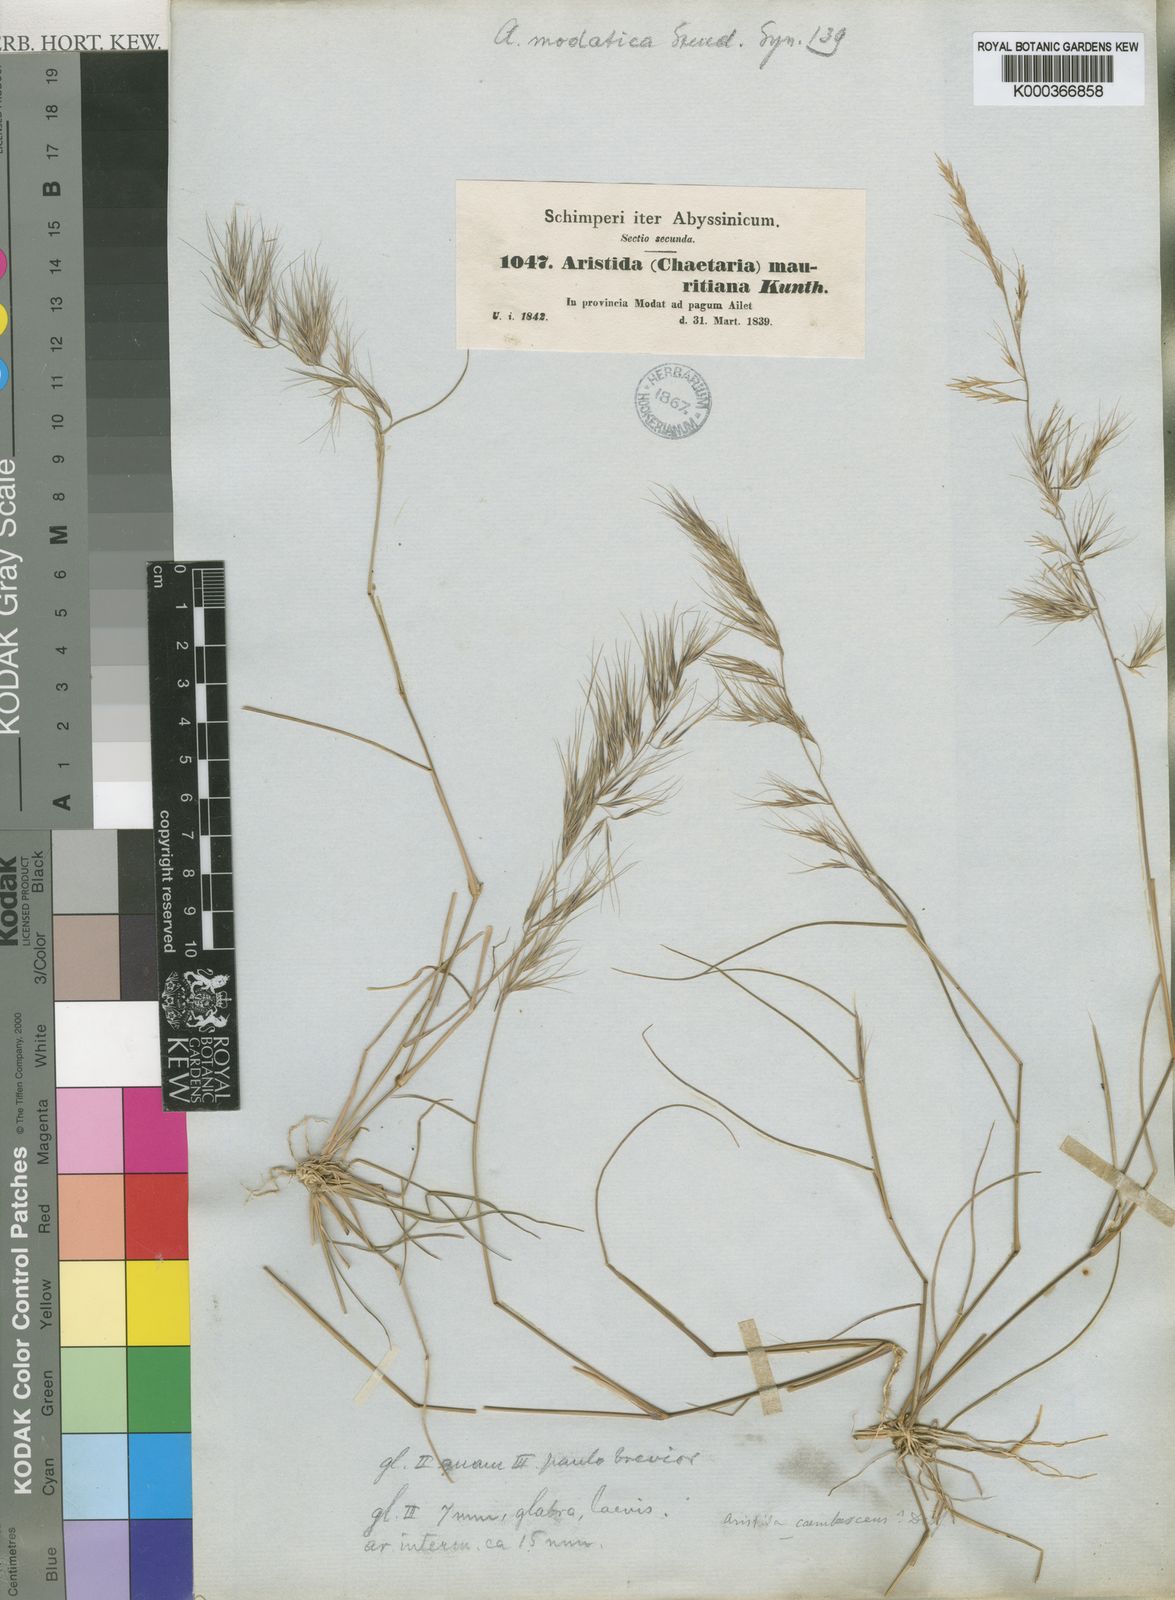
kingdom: Plantae
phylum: Tracheophyta
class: Liliopsida
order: Poales
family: Poaceae
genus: Aristida
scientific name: Aristida adscensionis
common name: Sixweeks threeawn
